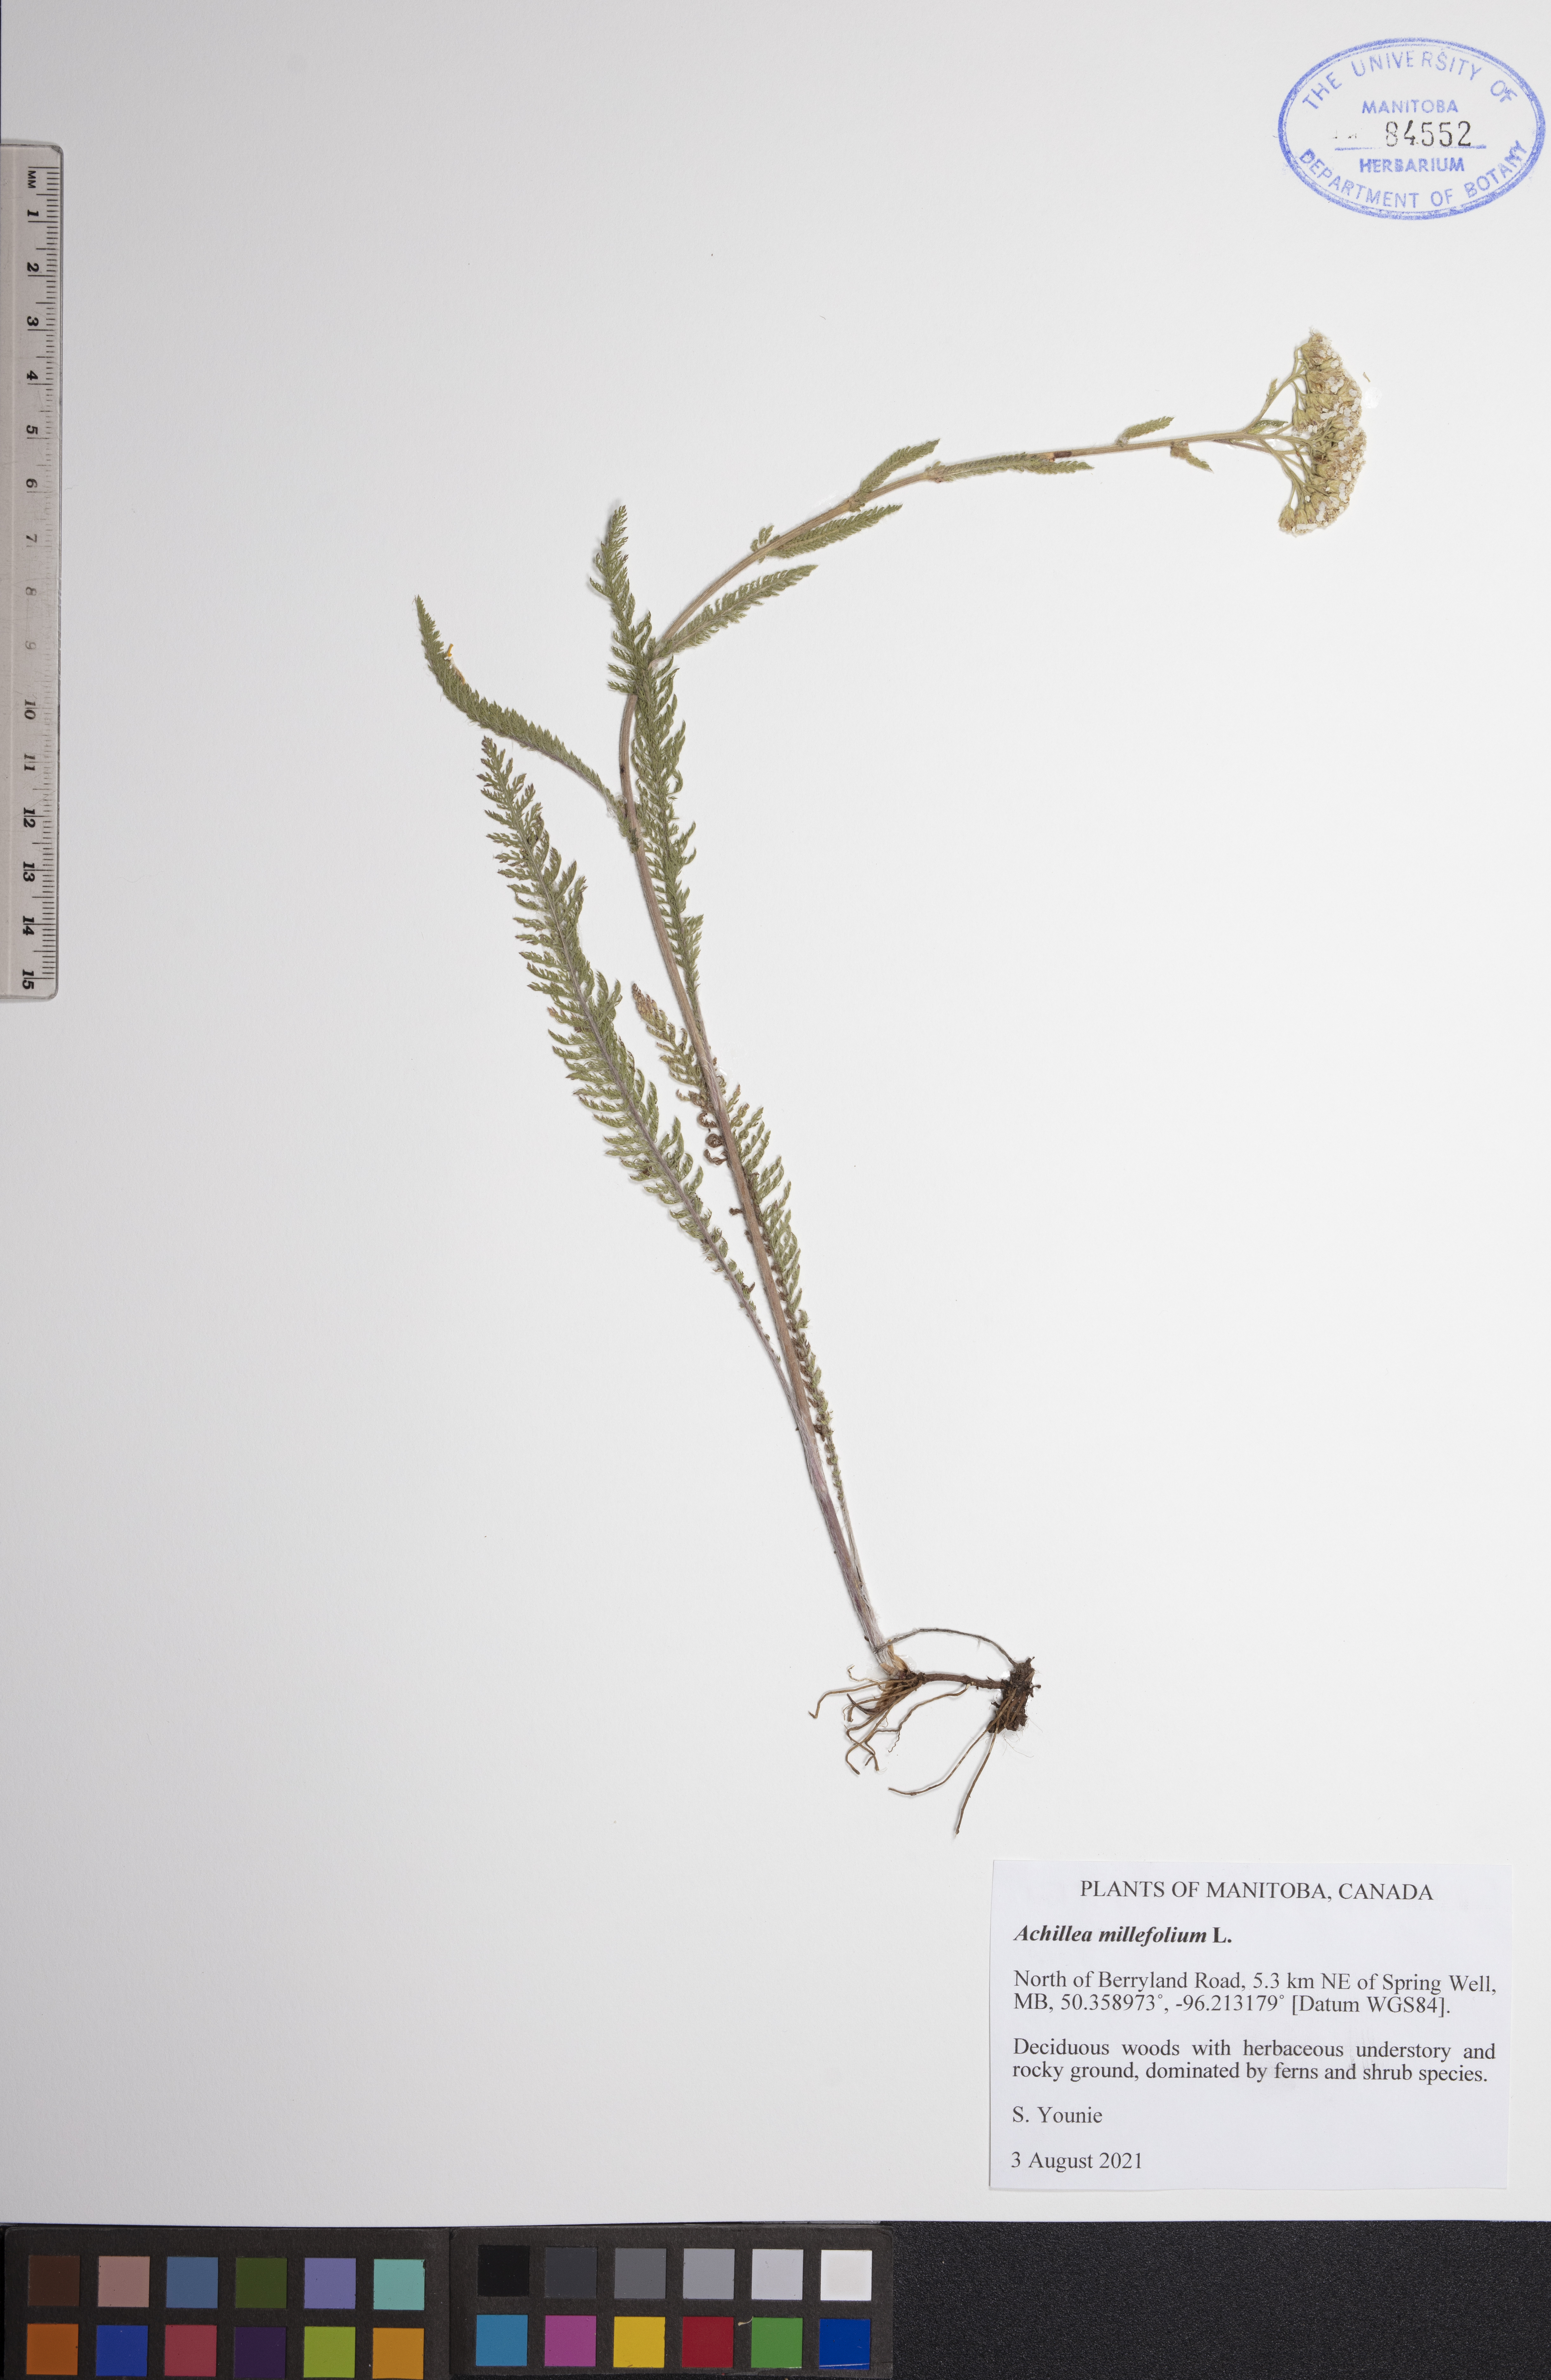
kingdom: Plantae
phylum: Tracheophyta
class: Magnoliopsida
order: Asterales
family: Asteraceae
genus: Achillea
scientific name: Achillea millefolium
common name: Yarrow
